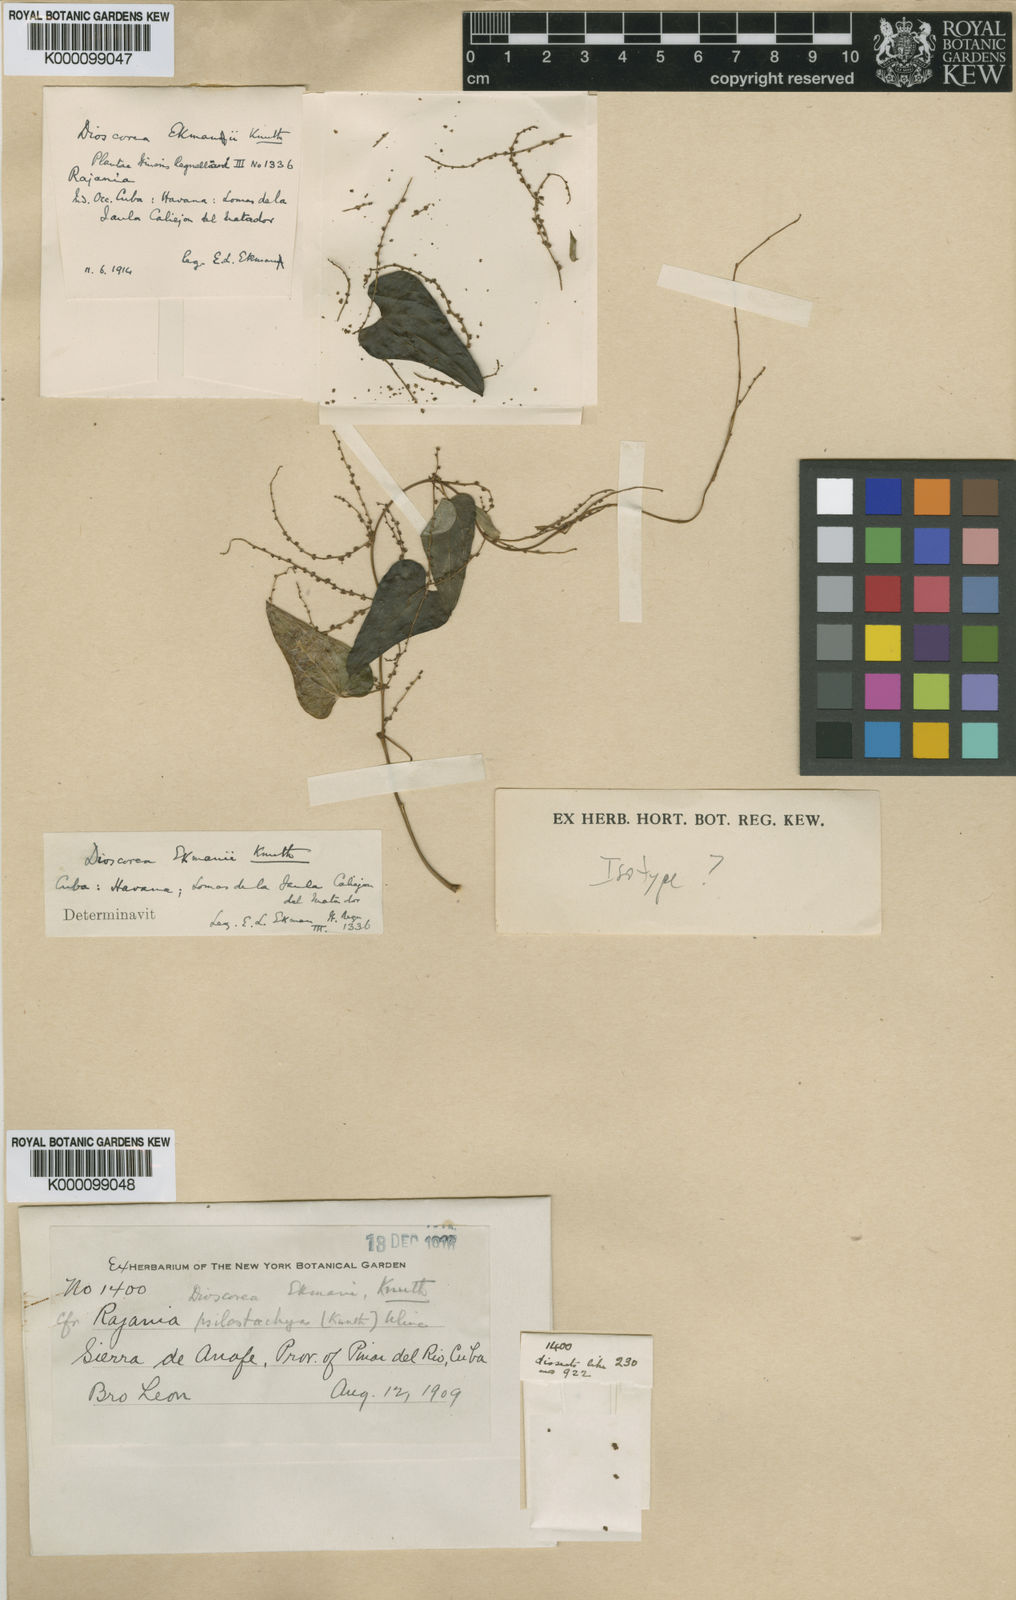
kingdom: Plantae
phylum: Tracheophyta
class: Liliopsida
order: Dioscoreales
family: Dioscoreaceae
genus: Dioscorea
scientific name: Dioscorea
